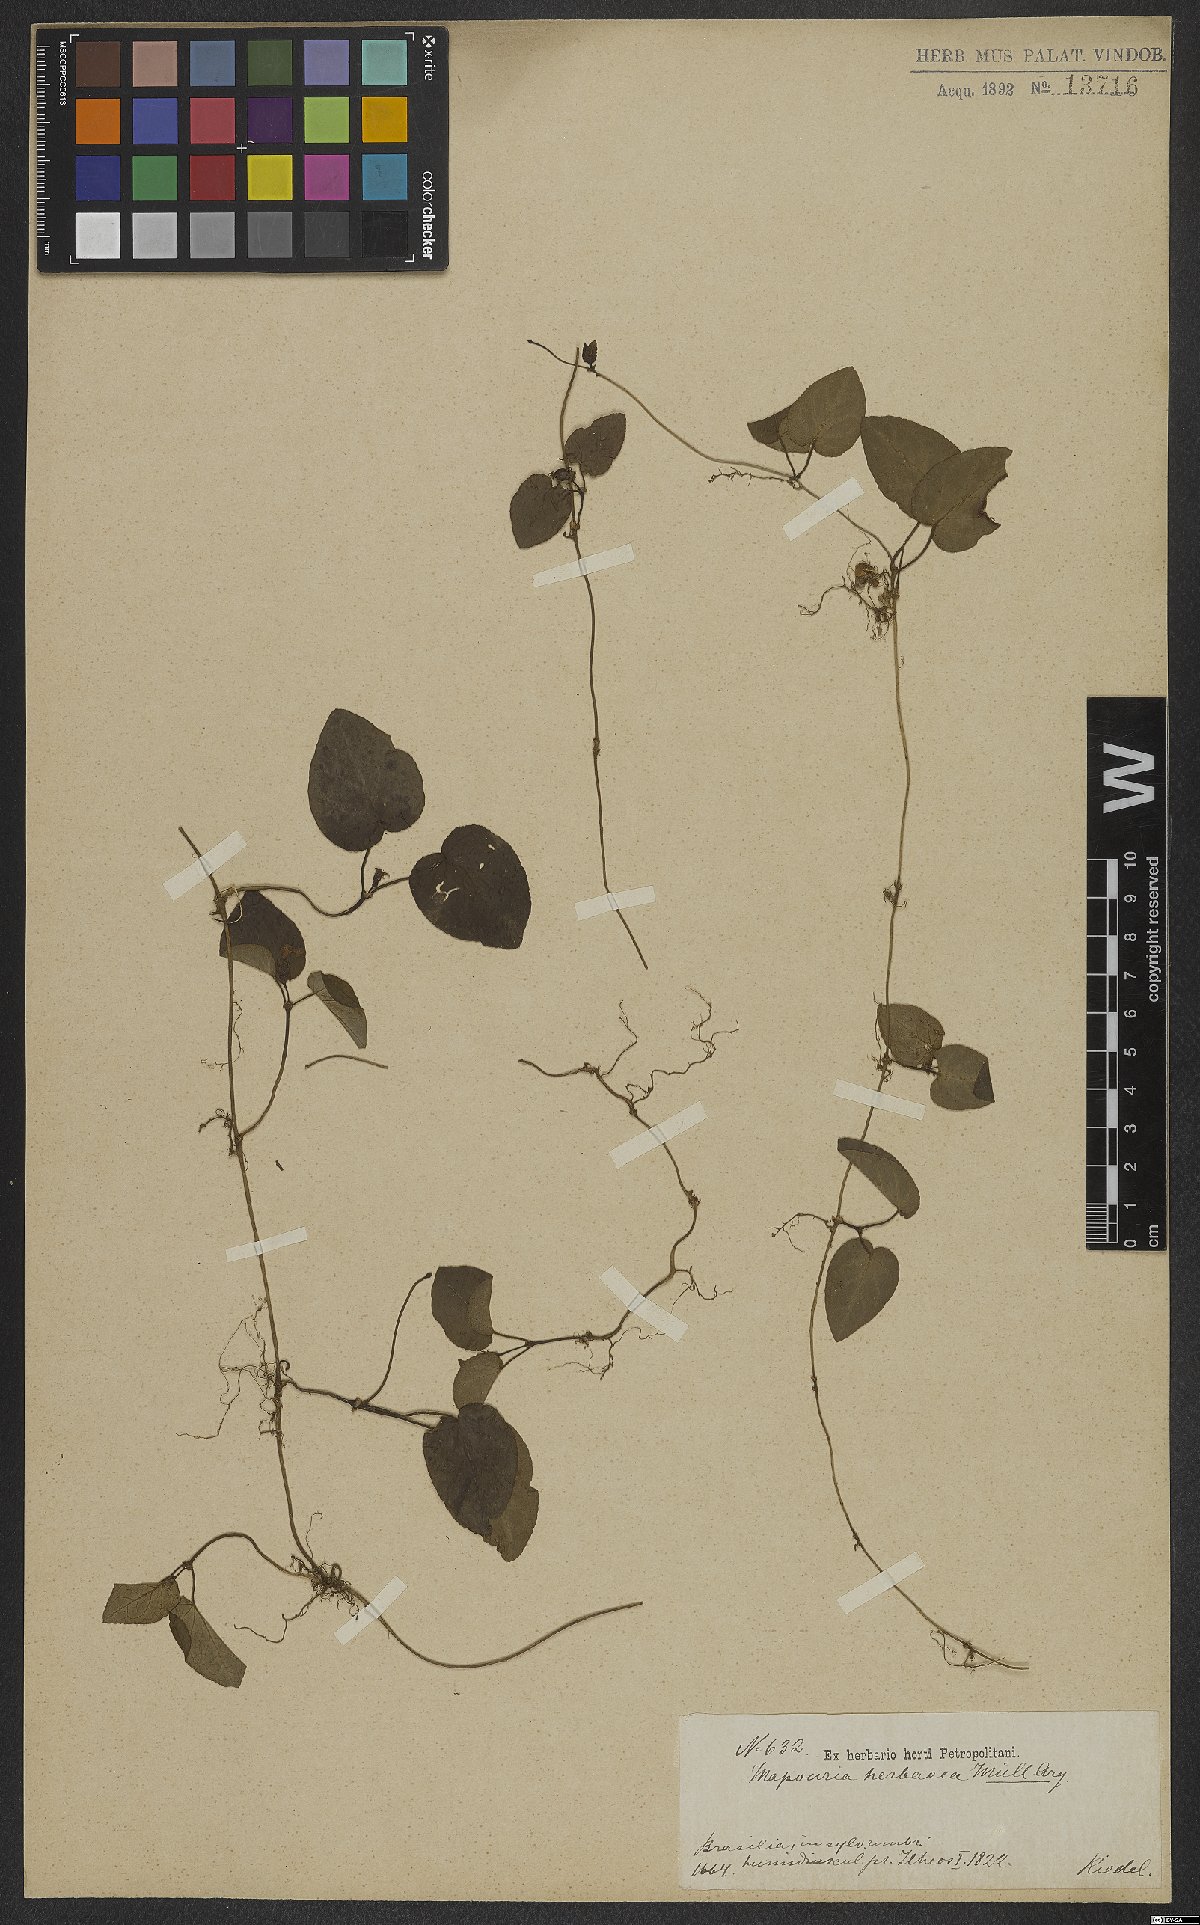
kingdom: Plantae
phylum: Tracheophyta
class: Magnoliopsida
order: Gentianales
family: Rubiaceae
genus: Geophila
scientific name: Geophila
